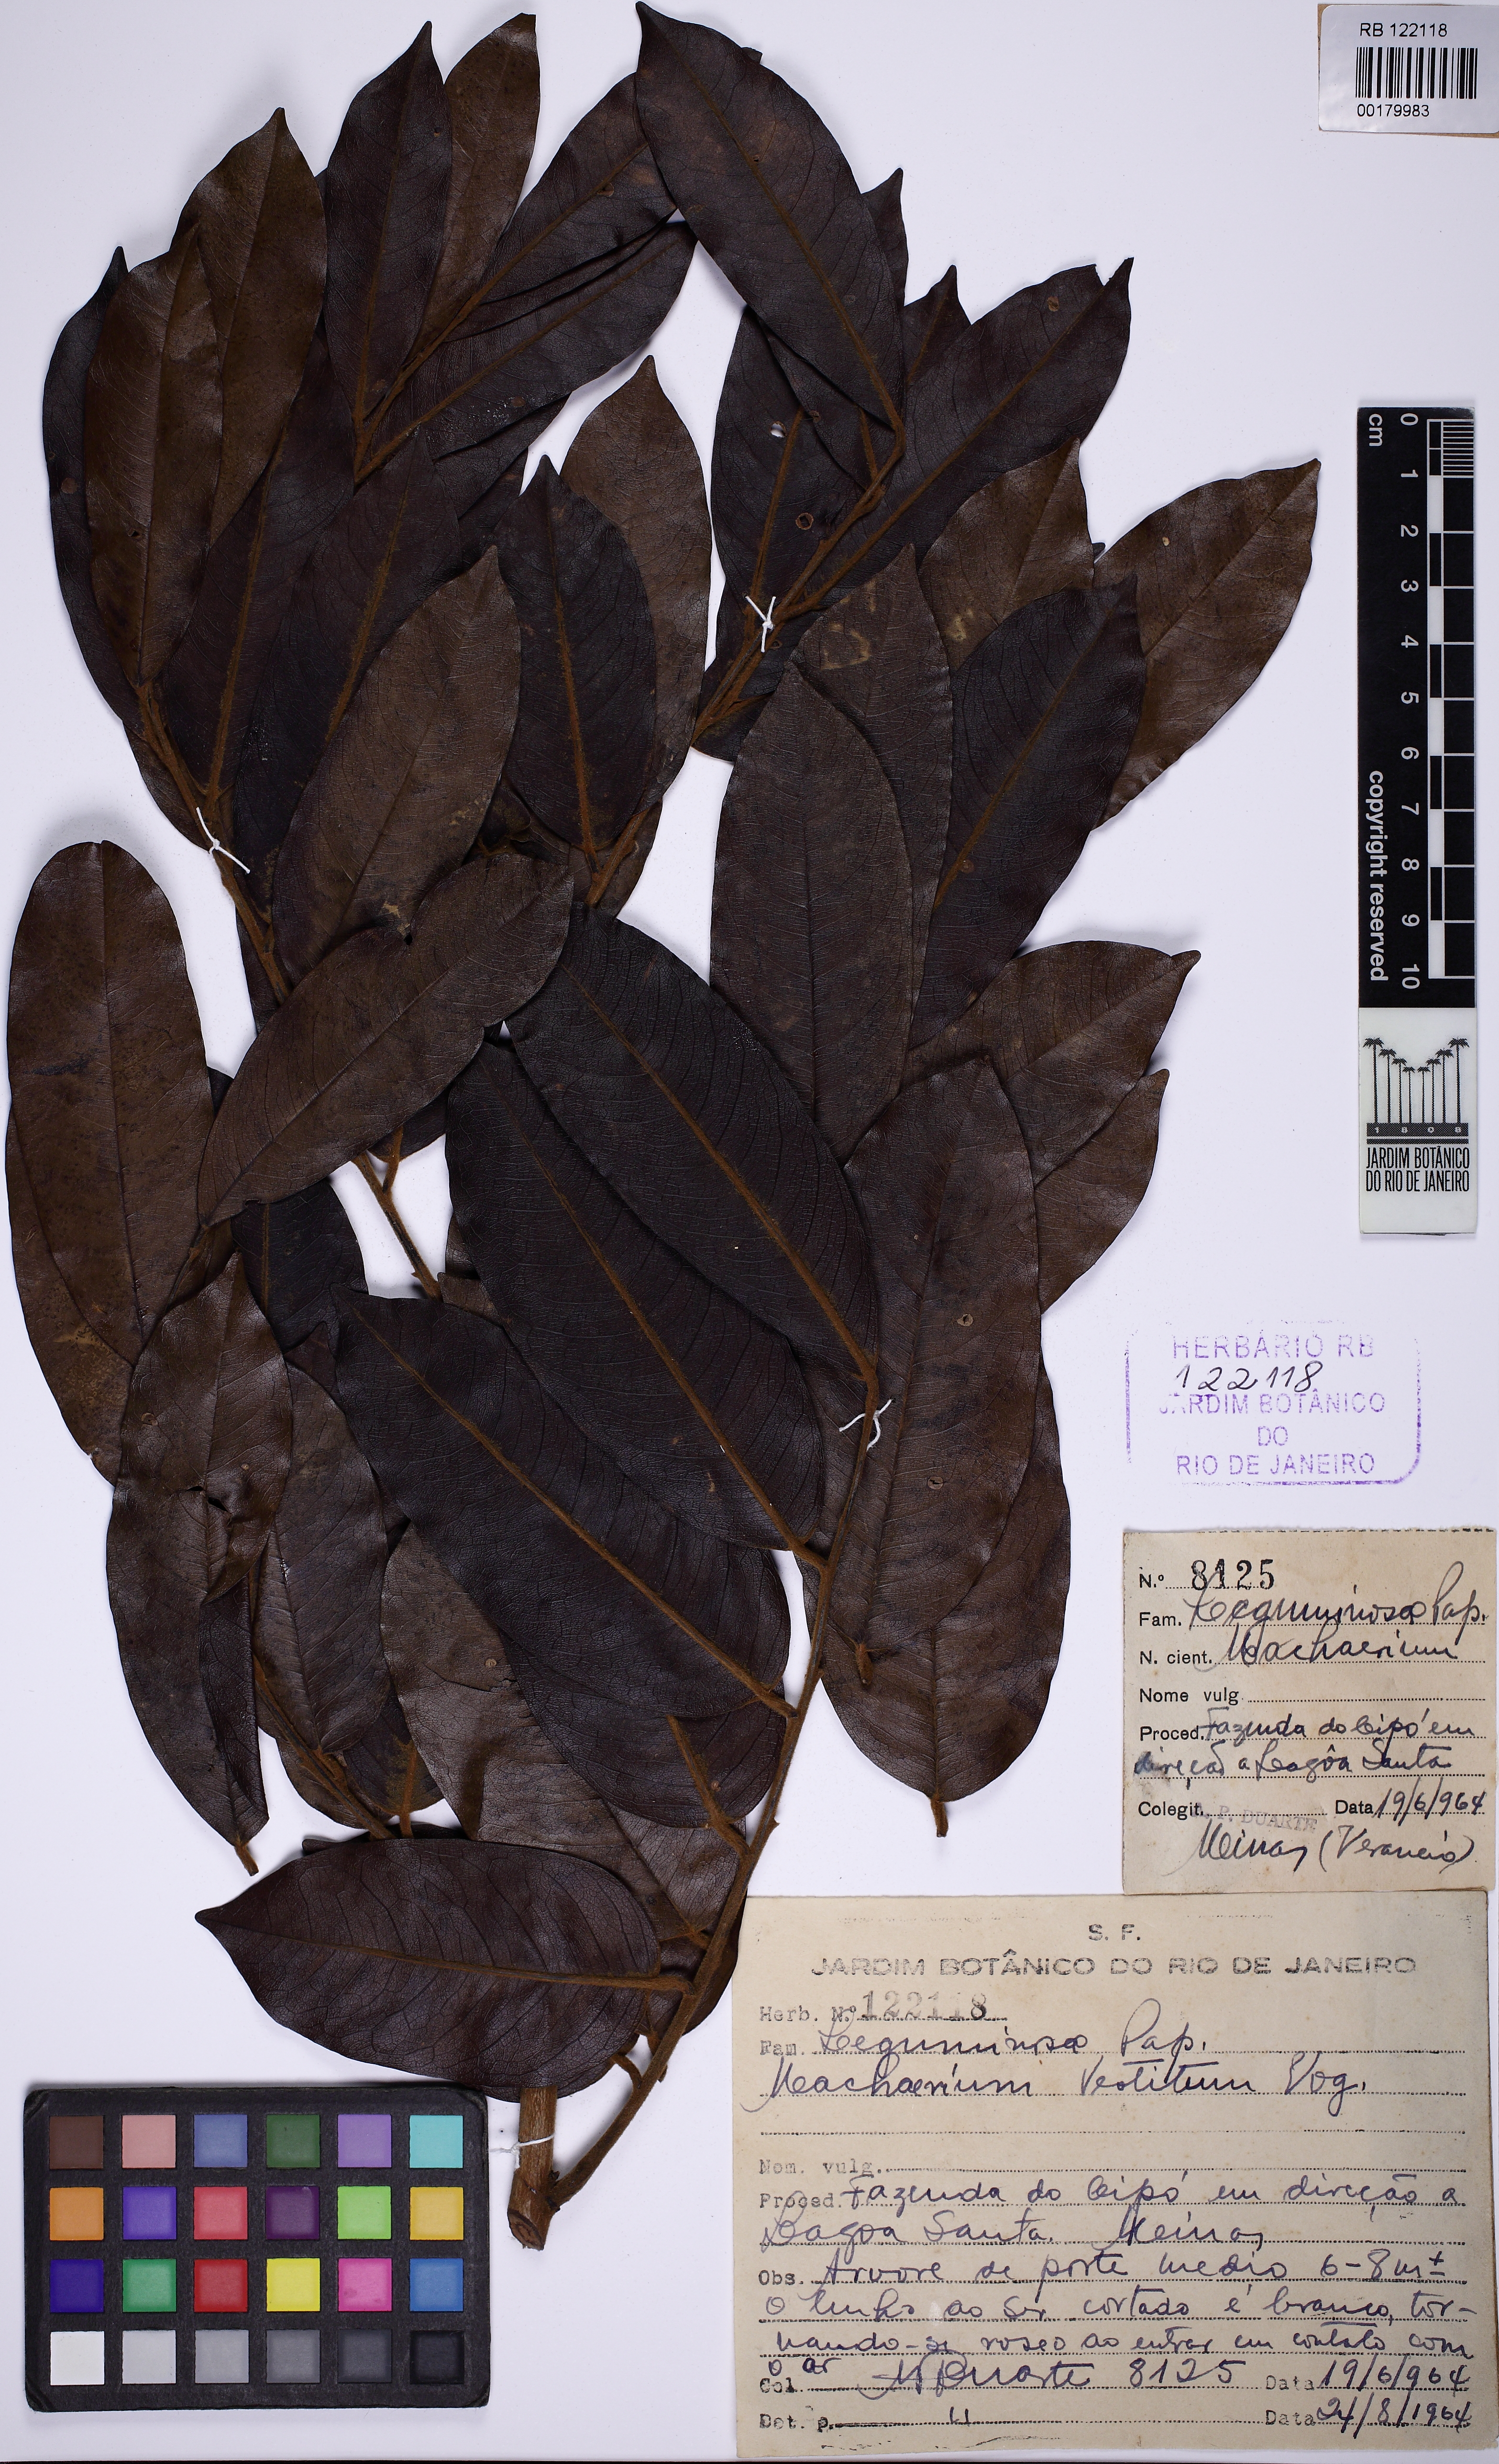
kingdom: Plantae
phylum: Tracheophyta
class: Magnoliopsida
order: Fabales
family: Fabaceae
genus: Machaerium
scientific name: Machaerium brasiliense
